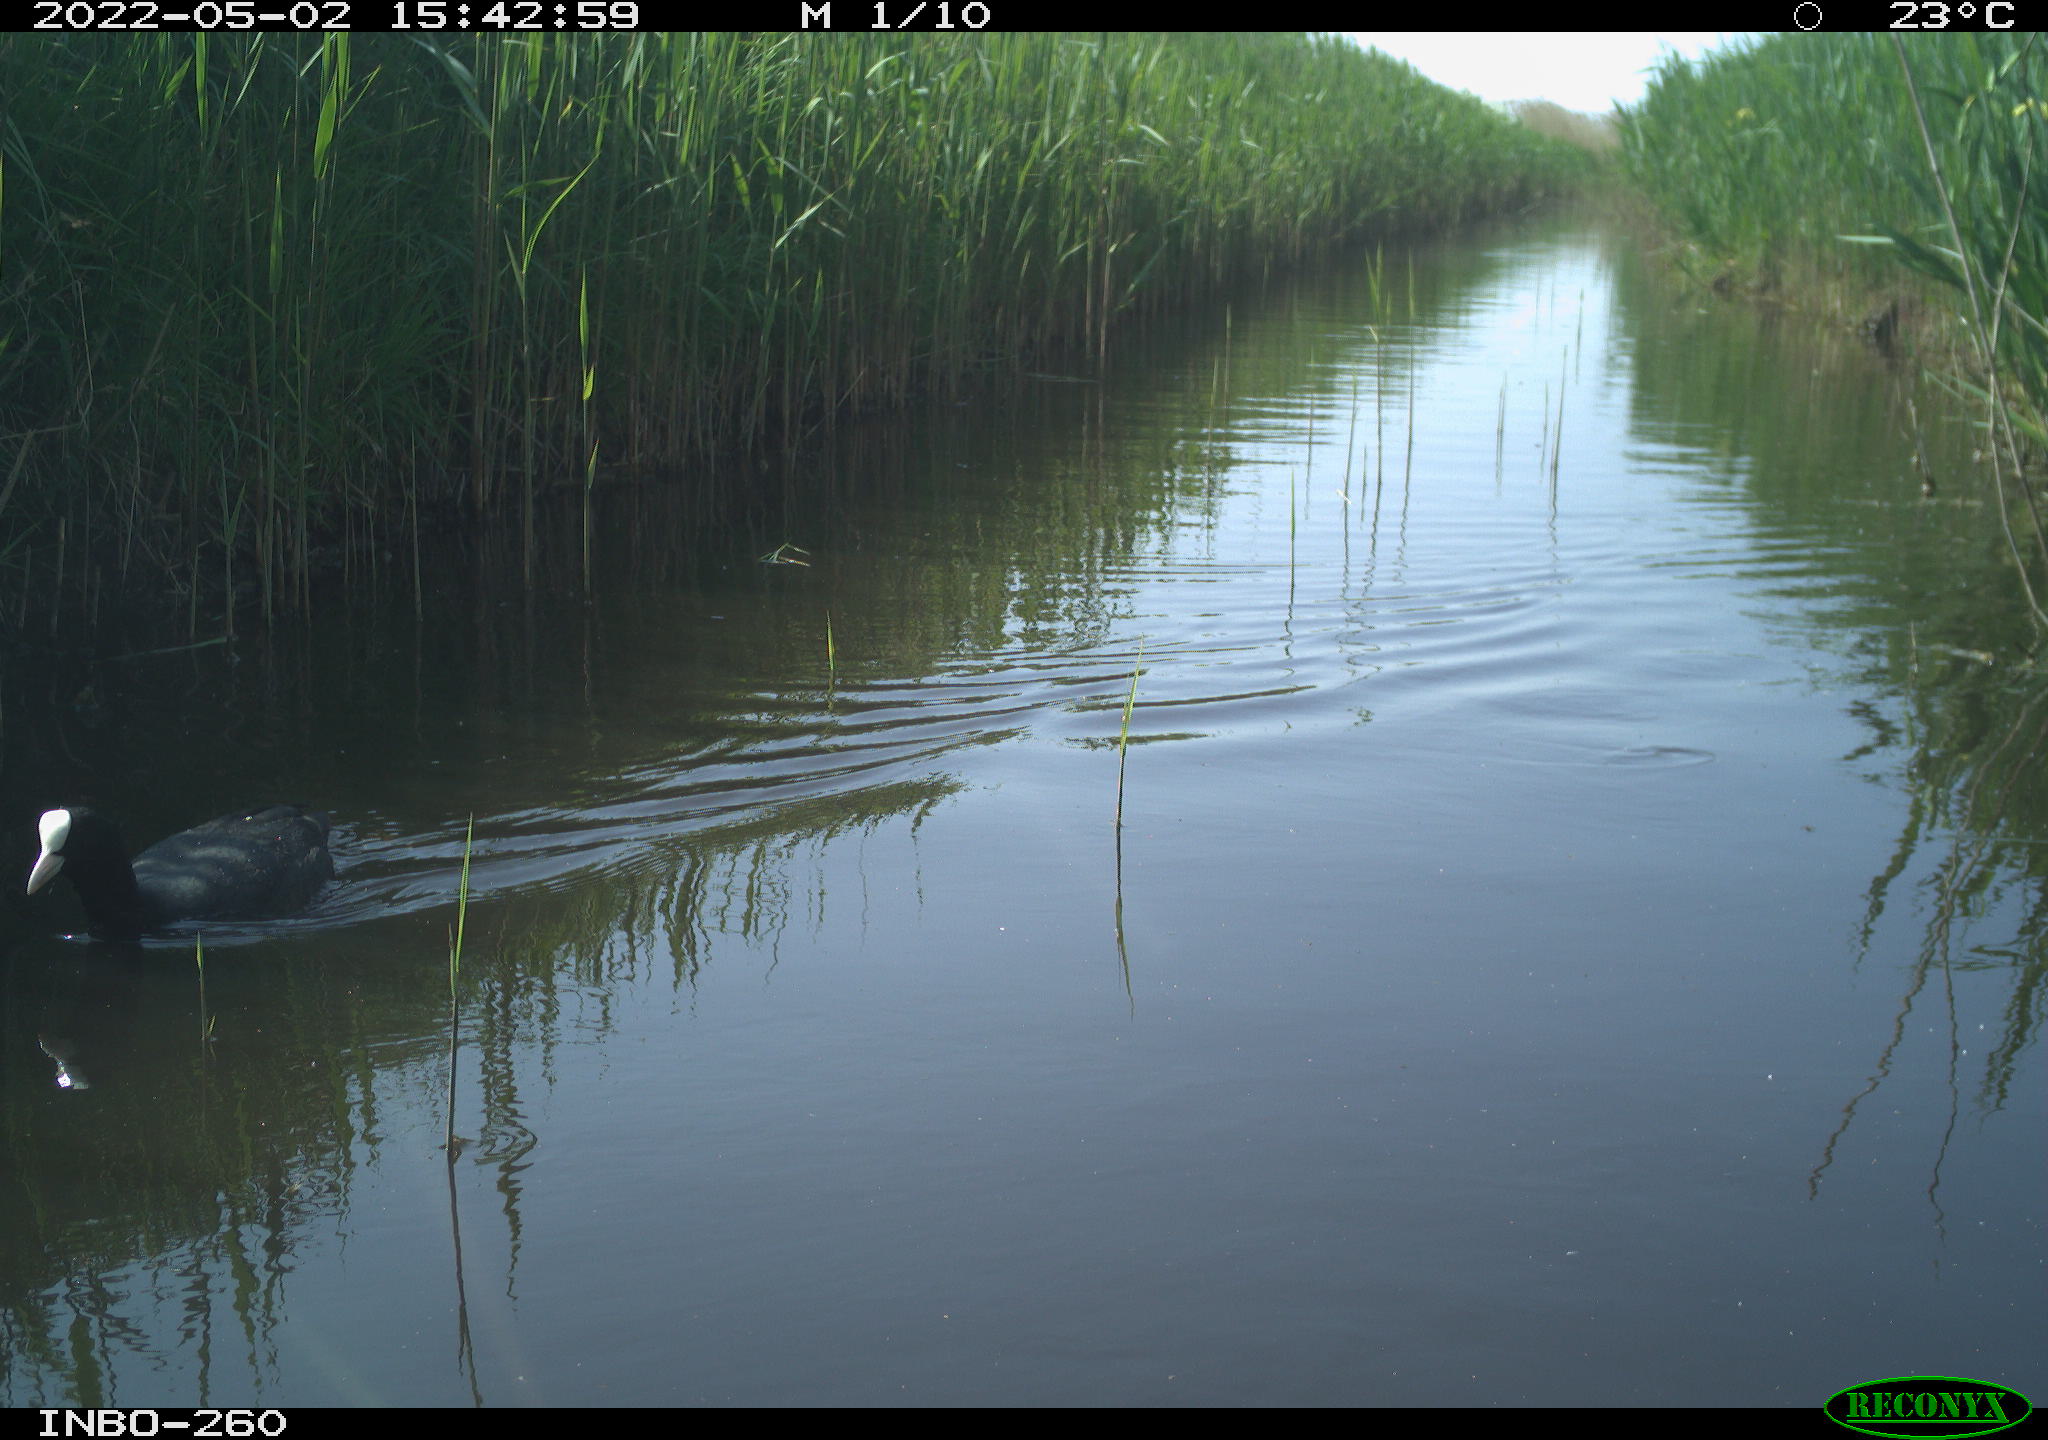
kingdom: Animalia
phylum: Chordata
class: Aves
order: Gruiformes
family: Rallidae
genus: Fulica
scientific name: Fulica atra
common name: Eurasian coot
